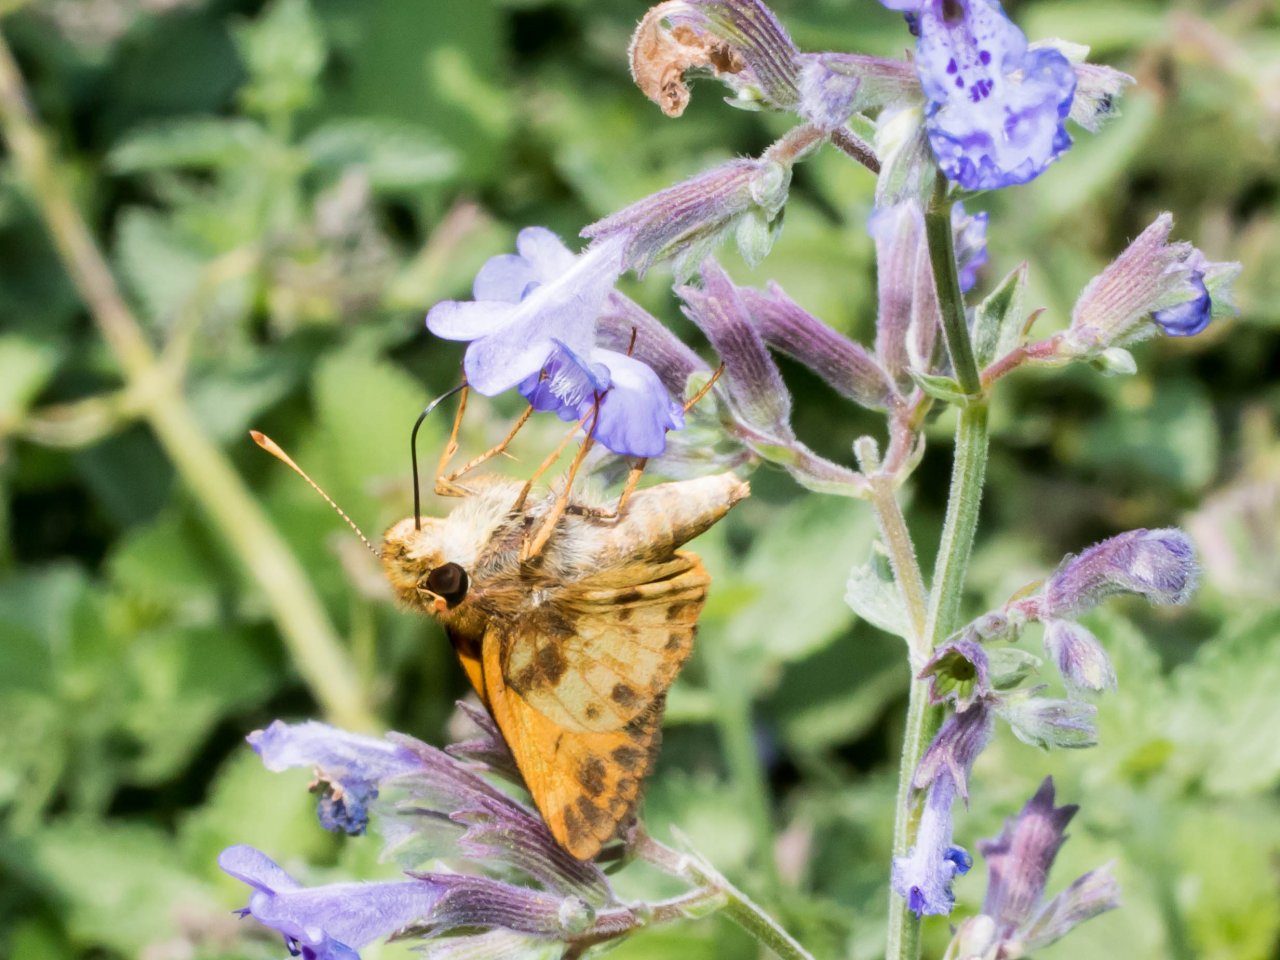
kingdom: Animalia
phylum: Arthropoda
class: Insecta
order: Lepidoptera
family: Hesperiidae
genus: Lon
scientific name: Lon zabulon
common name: Zabulon Skipper
